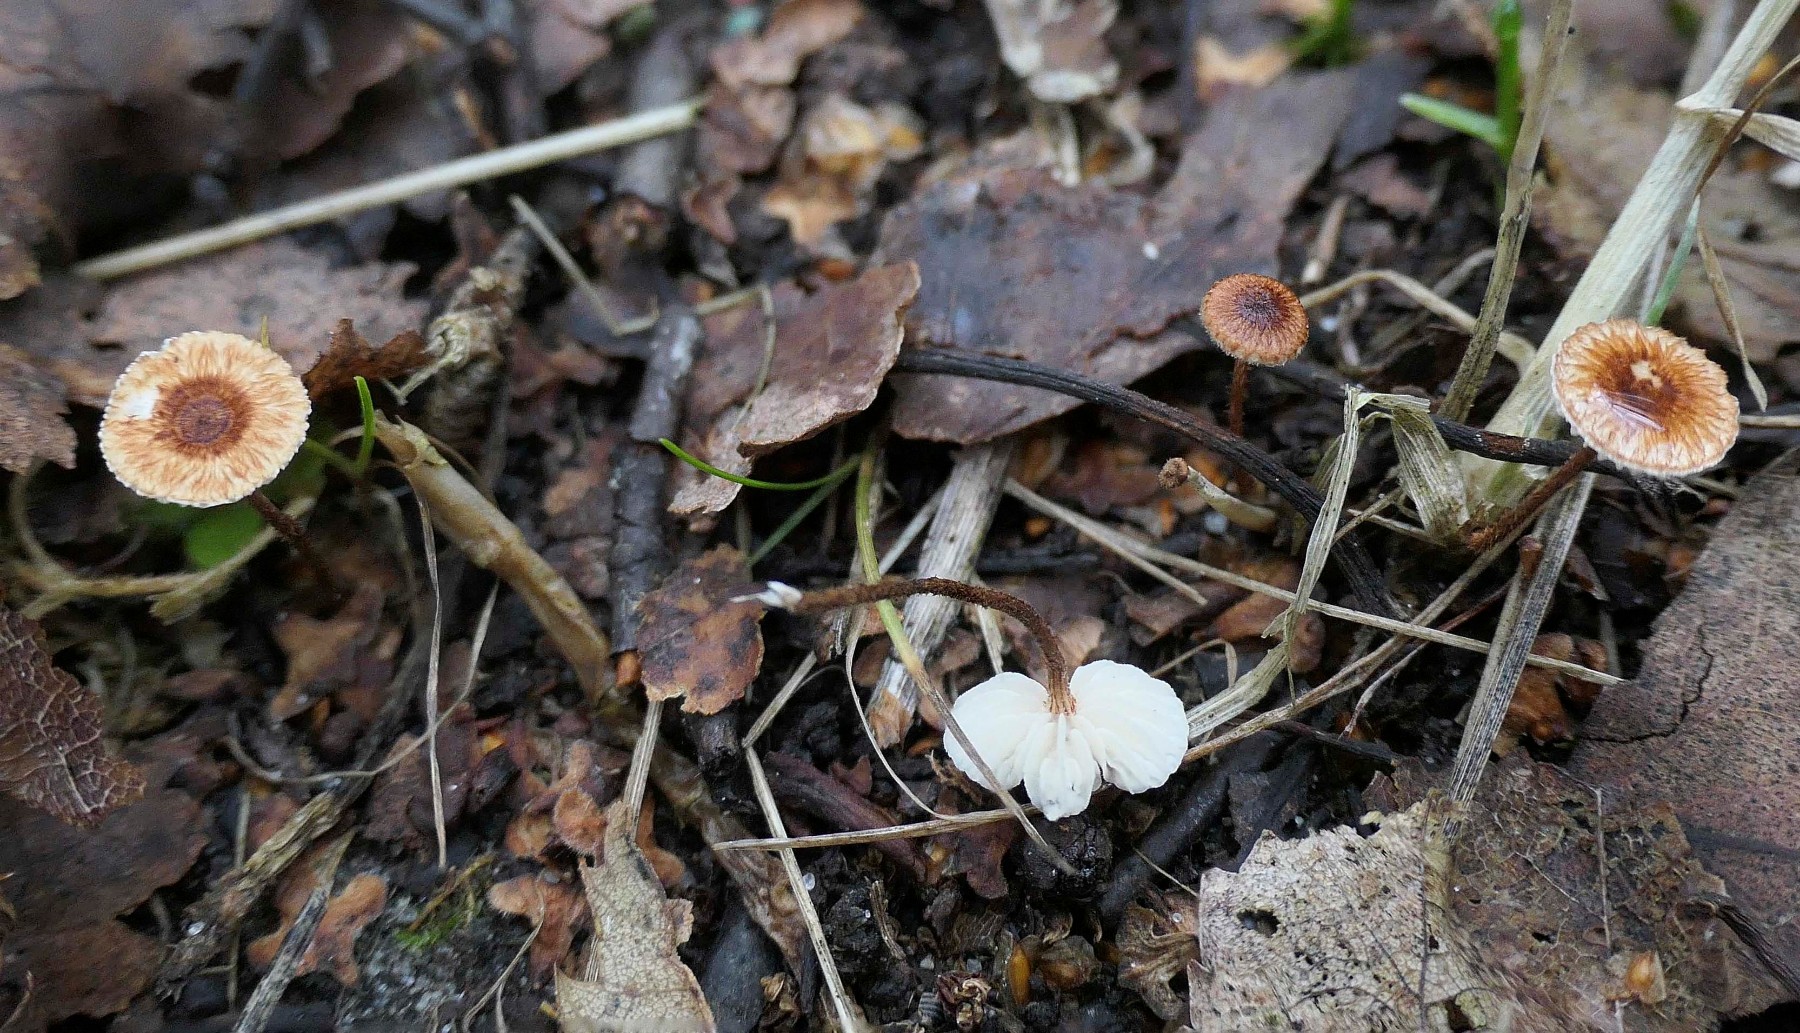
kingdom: Fungi
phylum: Basidiomycota
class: Agaricomycetes
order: Agaricales
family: Marasmiaceae
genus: Crinipellis
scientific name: Crinipellis scabella
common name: børstefod
